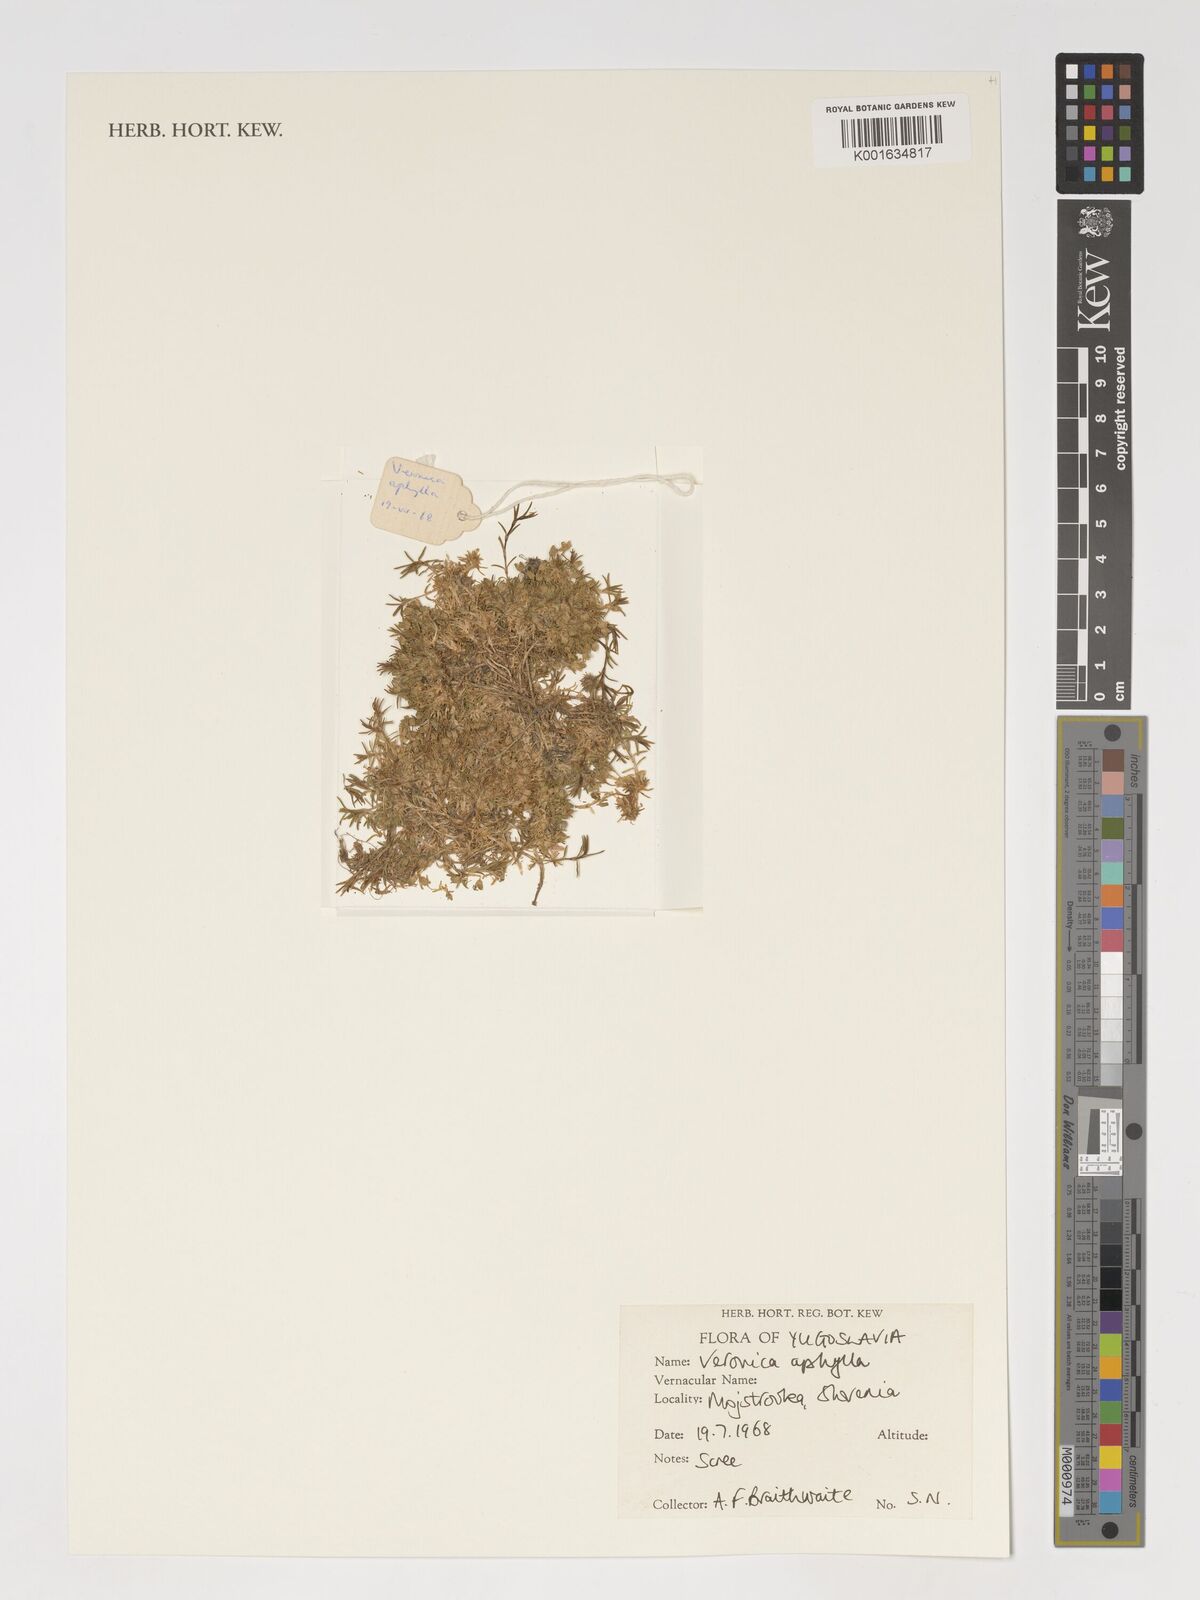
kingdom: Plantae
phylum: Tracheophyta
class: Magnoliopsida
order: Lamiales
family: Plantaginaceae
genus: Veronica
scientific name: Veronica aphylla
